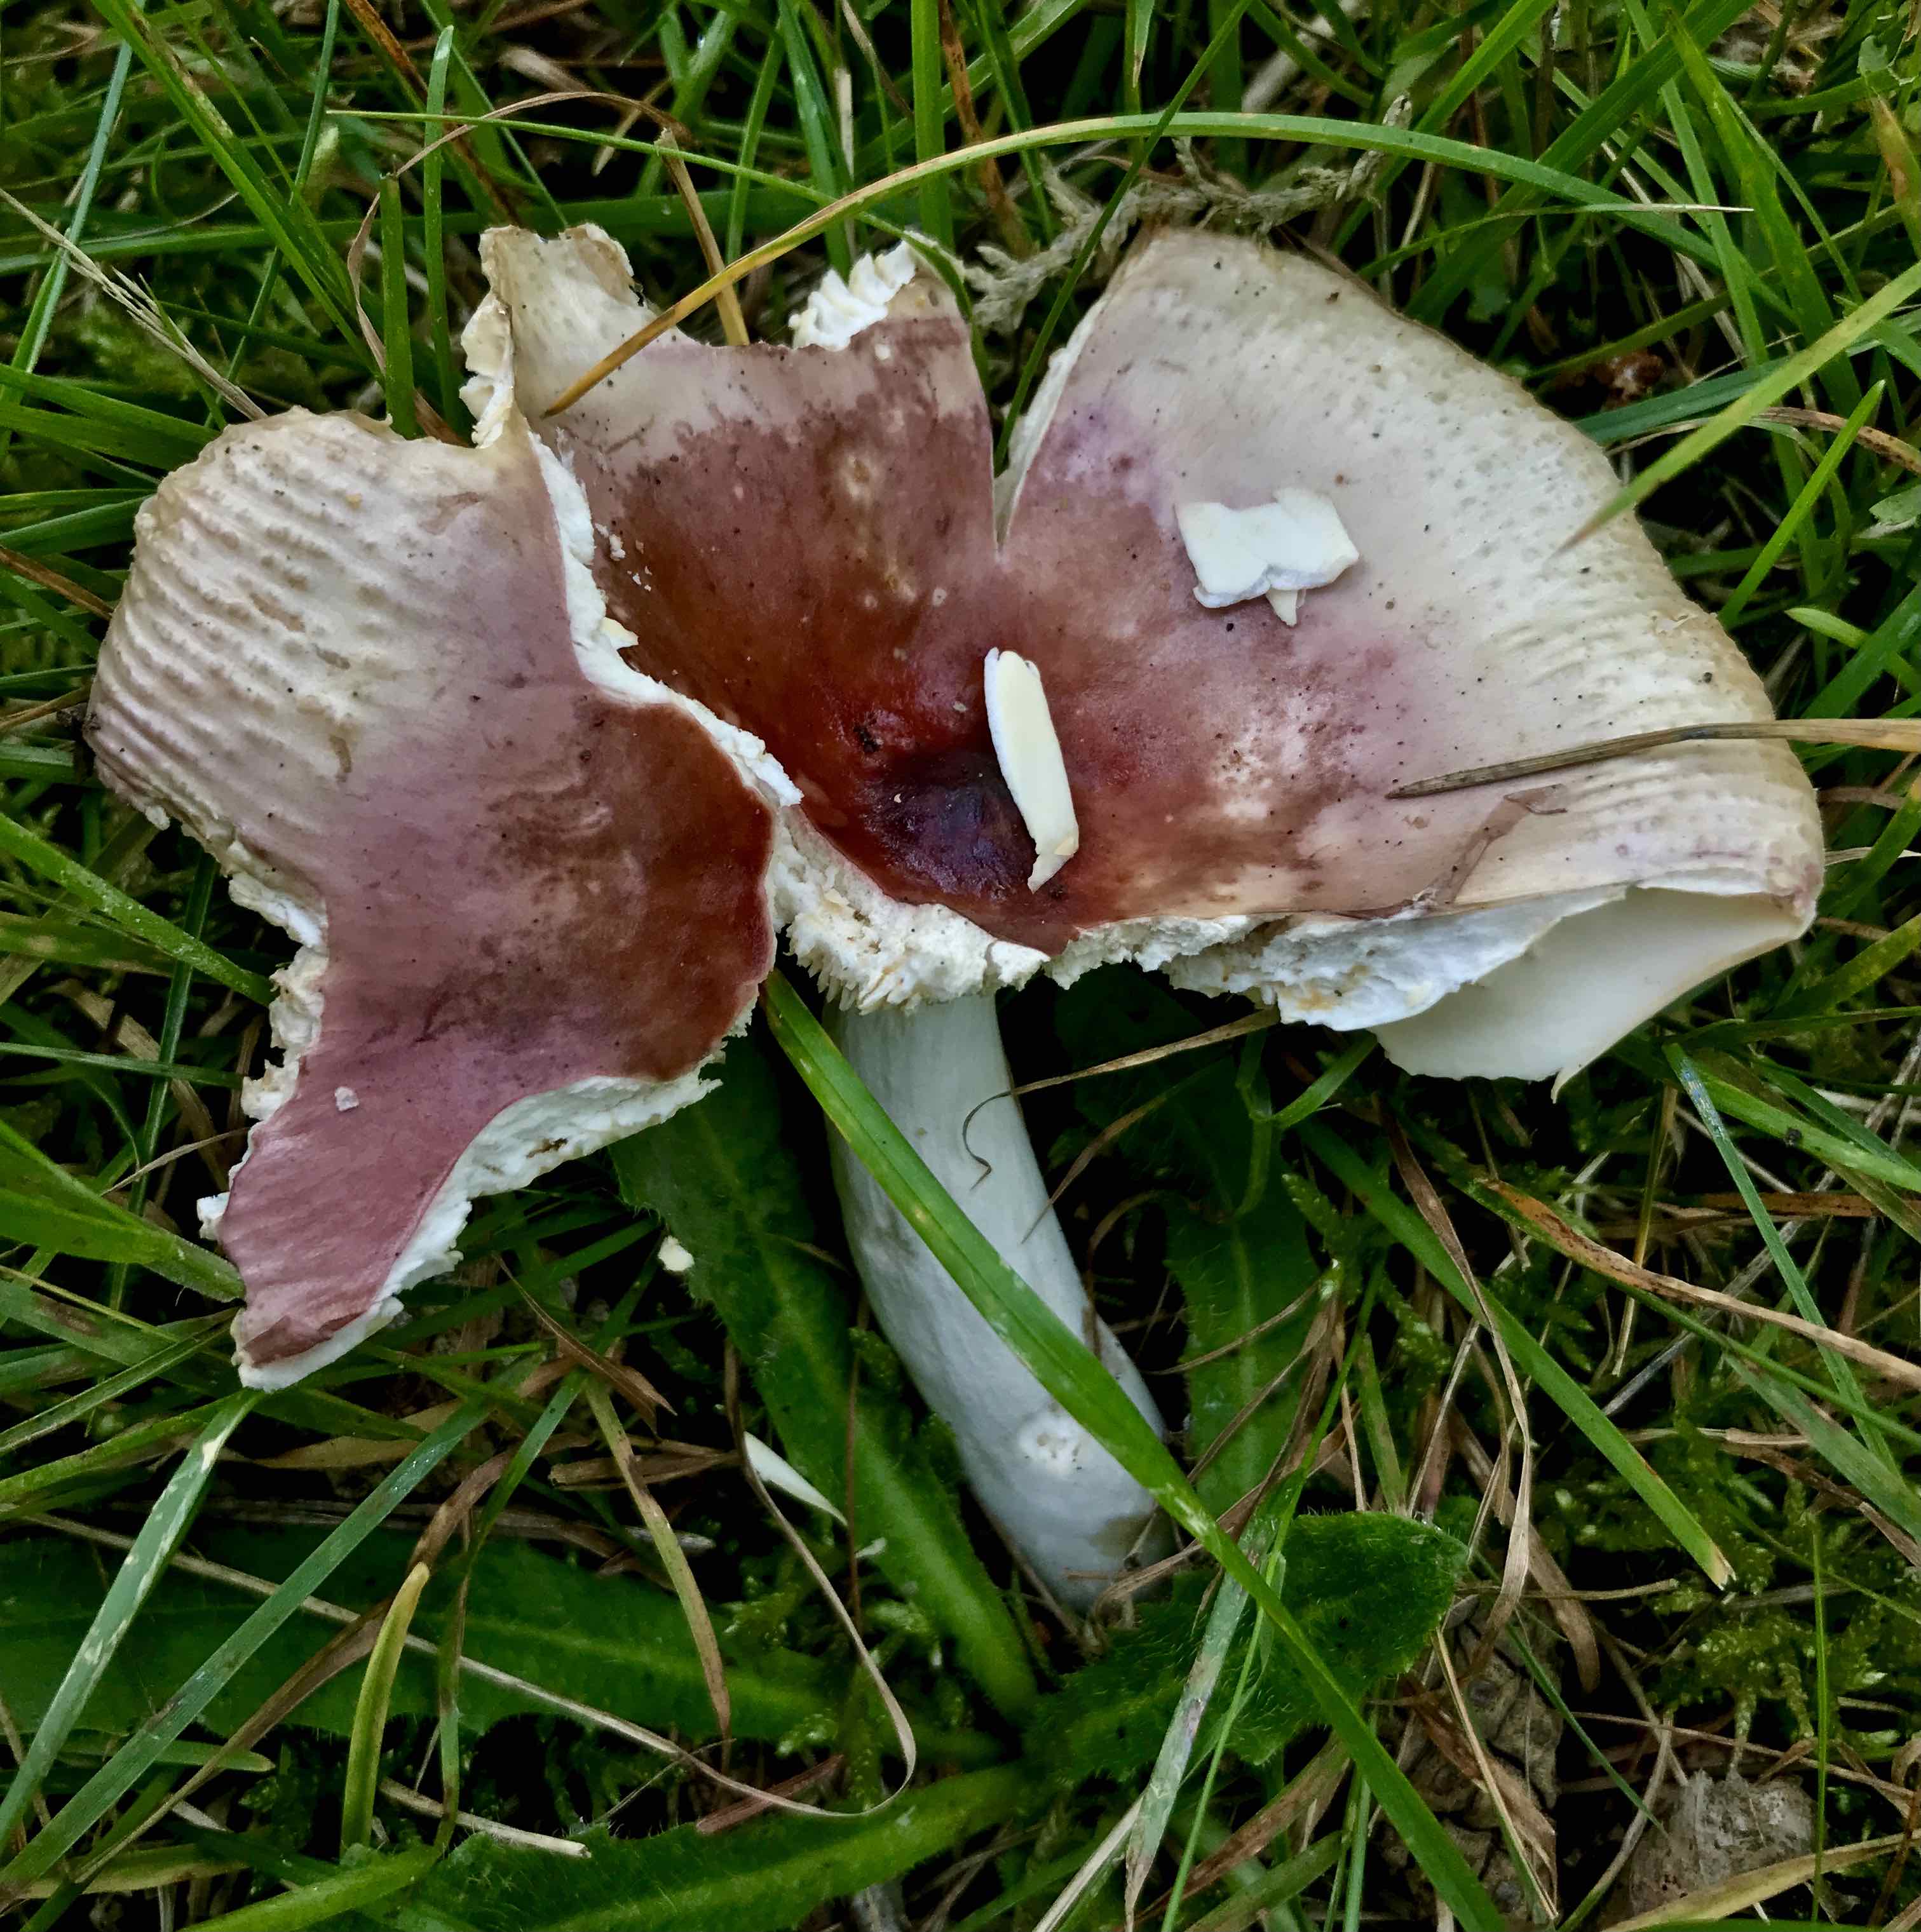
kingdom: Fungi
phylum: Basidiomycota
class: Agaricomycetes
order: Russulales
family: Russulaceae
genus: Russula
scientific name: Russula cessans
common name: fyrre-skørhat
